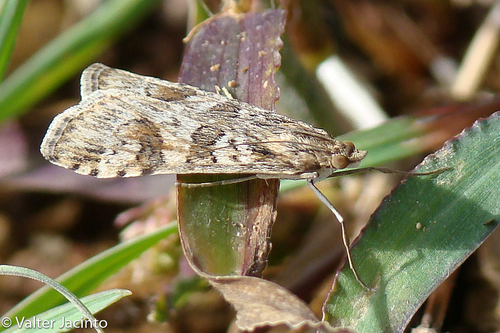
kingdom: Animalia
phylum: Arthropoda
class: Insecta
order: Lepidoptera
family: Crambidae
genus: Nomophila
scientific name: Nomophila noctuella
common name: Rush veneer
